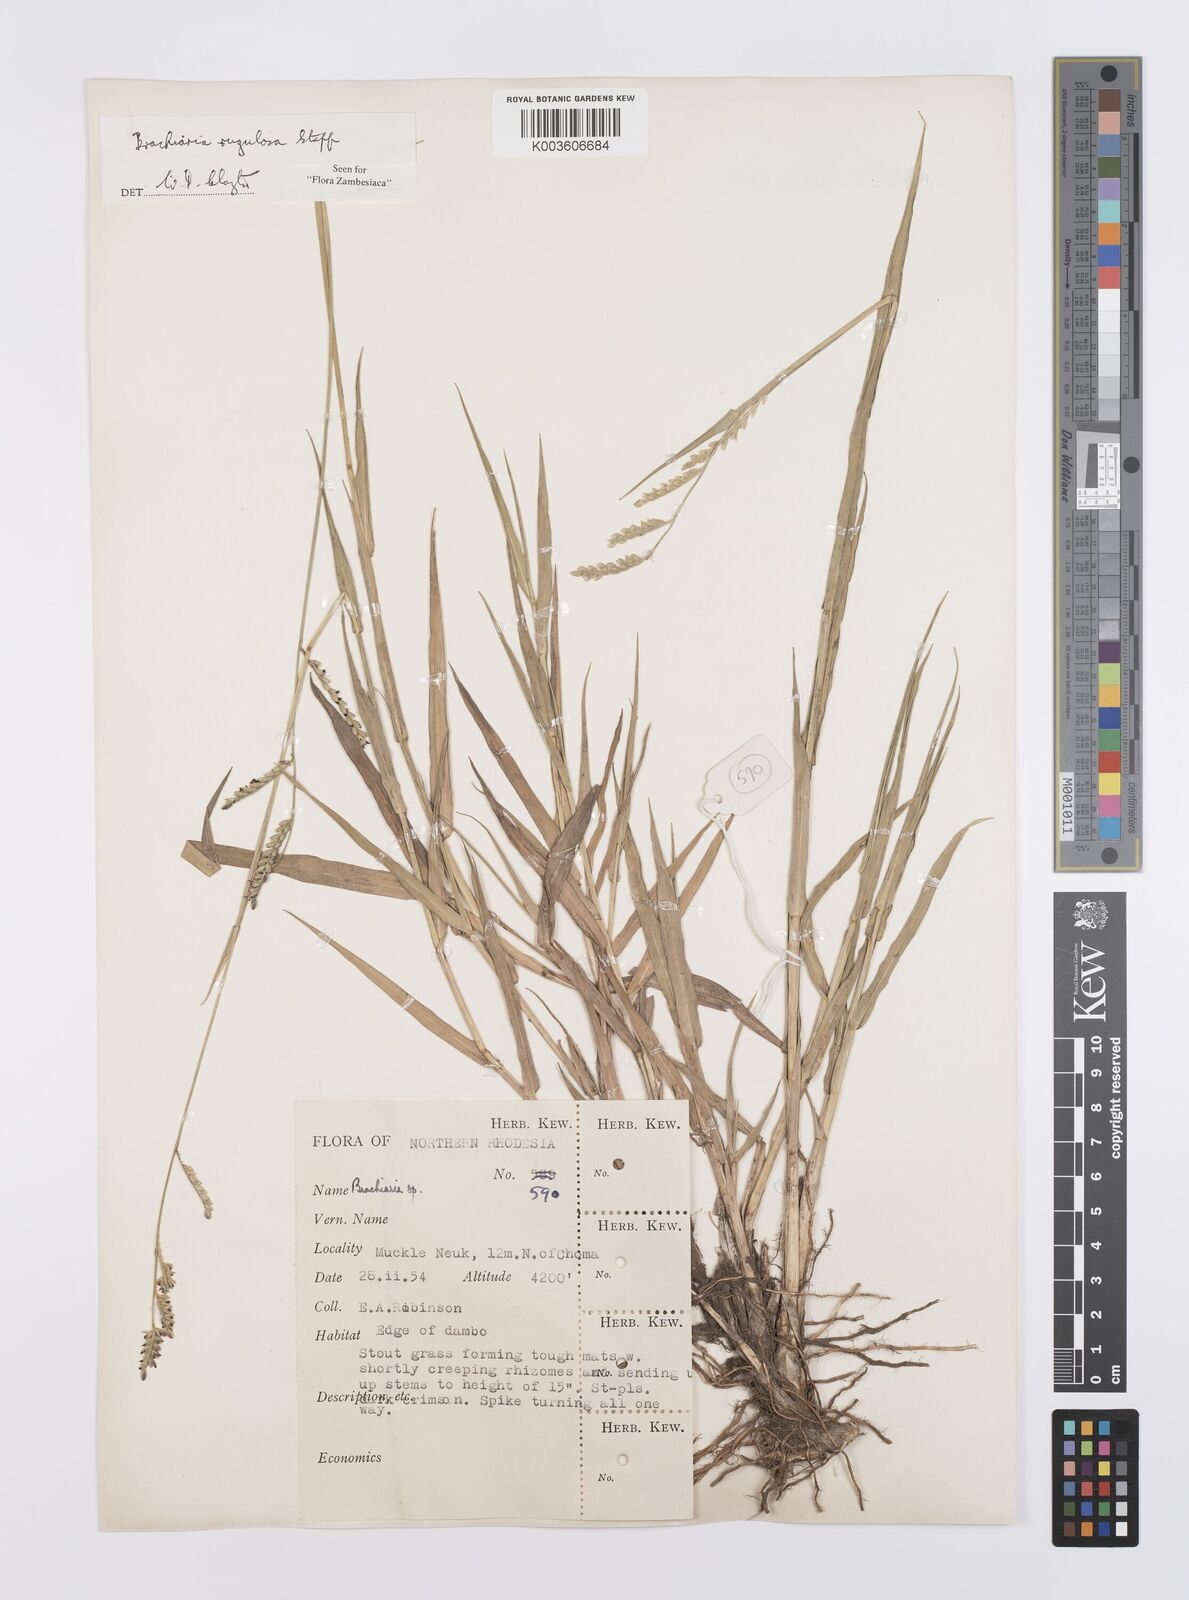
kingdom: Plantae
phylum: Tracheophyta
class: Liliopsida
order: Poales
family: Poaceae
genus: Urochloa
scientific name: Urochloa rugulosa
